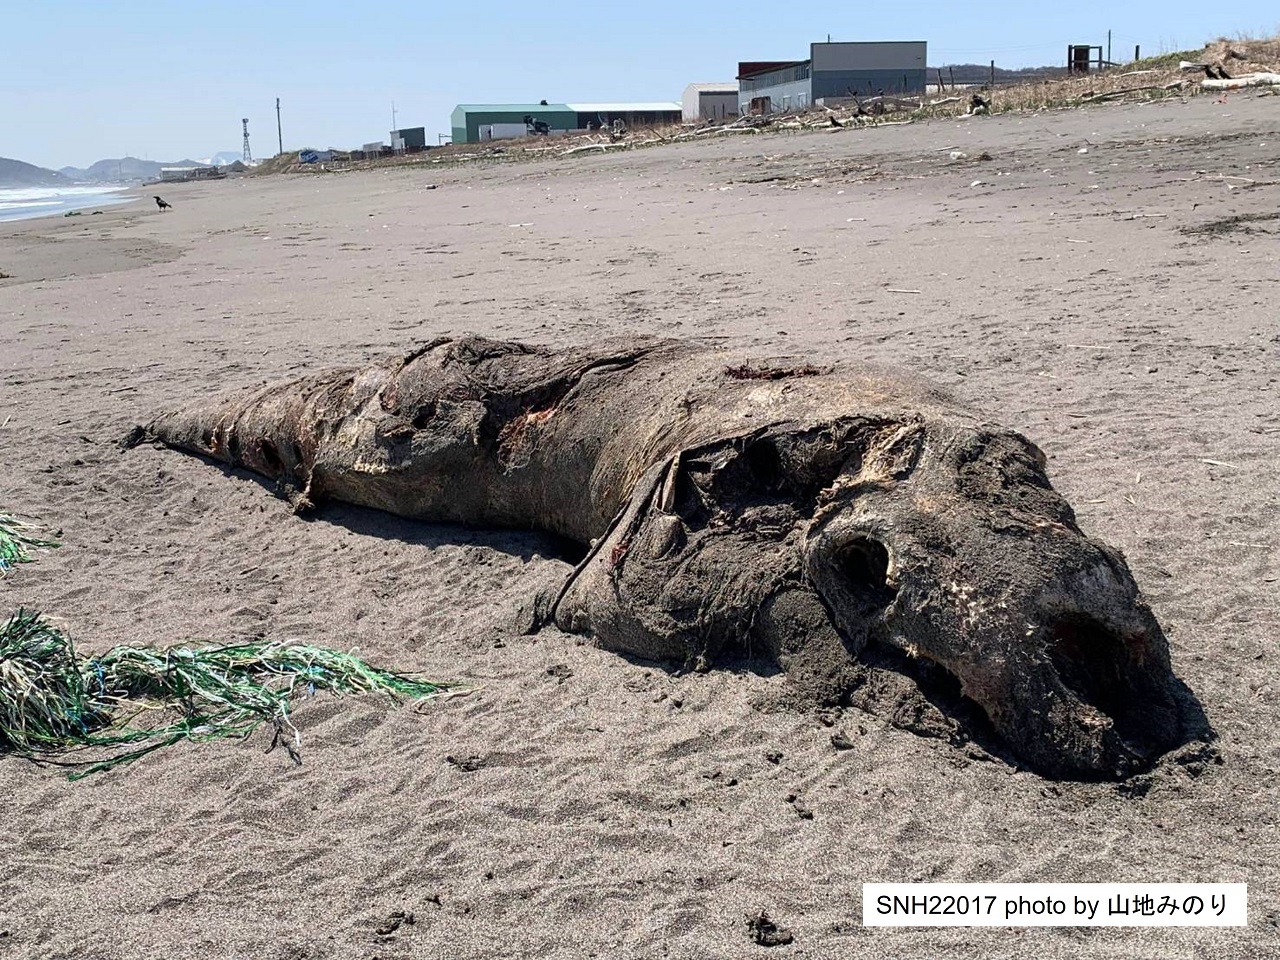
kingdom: Animalia
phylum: Chordata
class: Mammalia
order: Cetacea
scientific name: Cetacea
